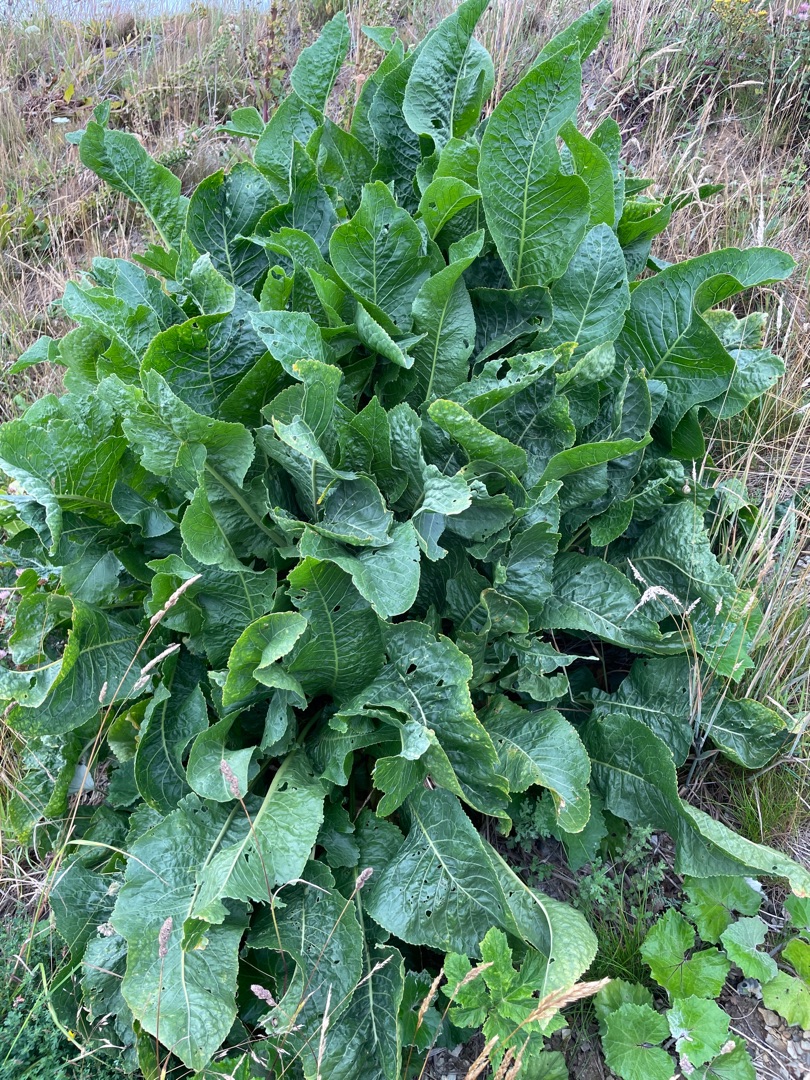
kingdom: Plantae
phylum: Tracheophyta
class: Magnoliopsida
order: Brassicales
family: Brassicaceae
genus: Armoracia
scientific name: Armoracia rusticana
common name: Peberrod
